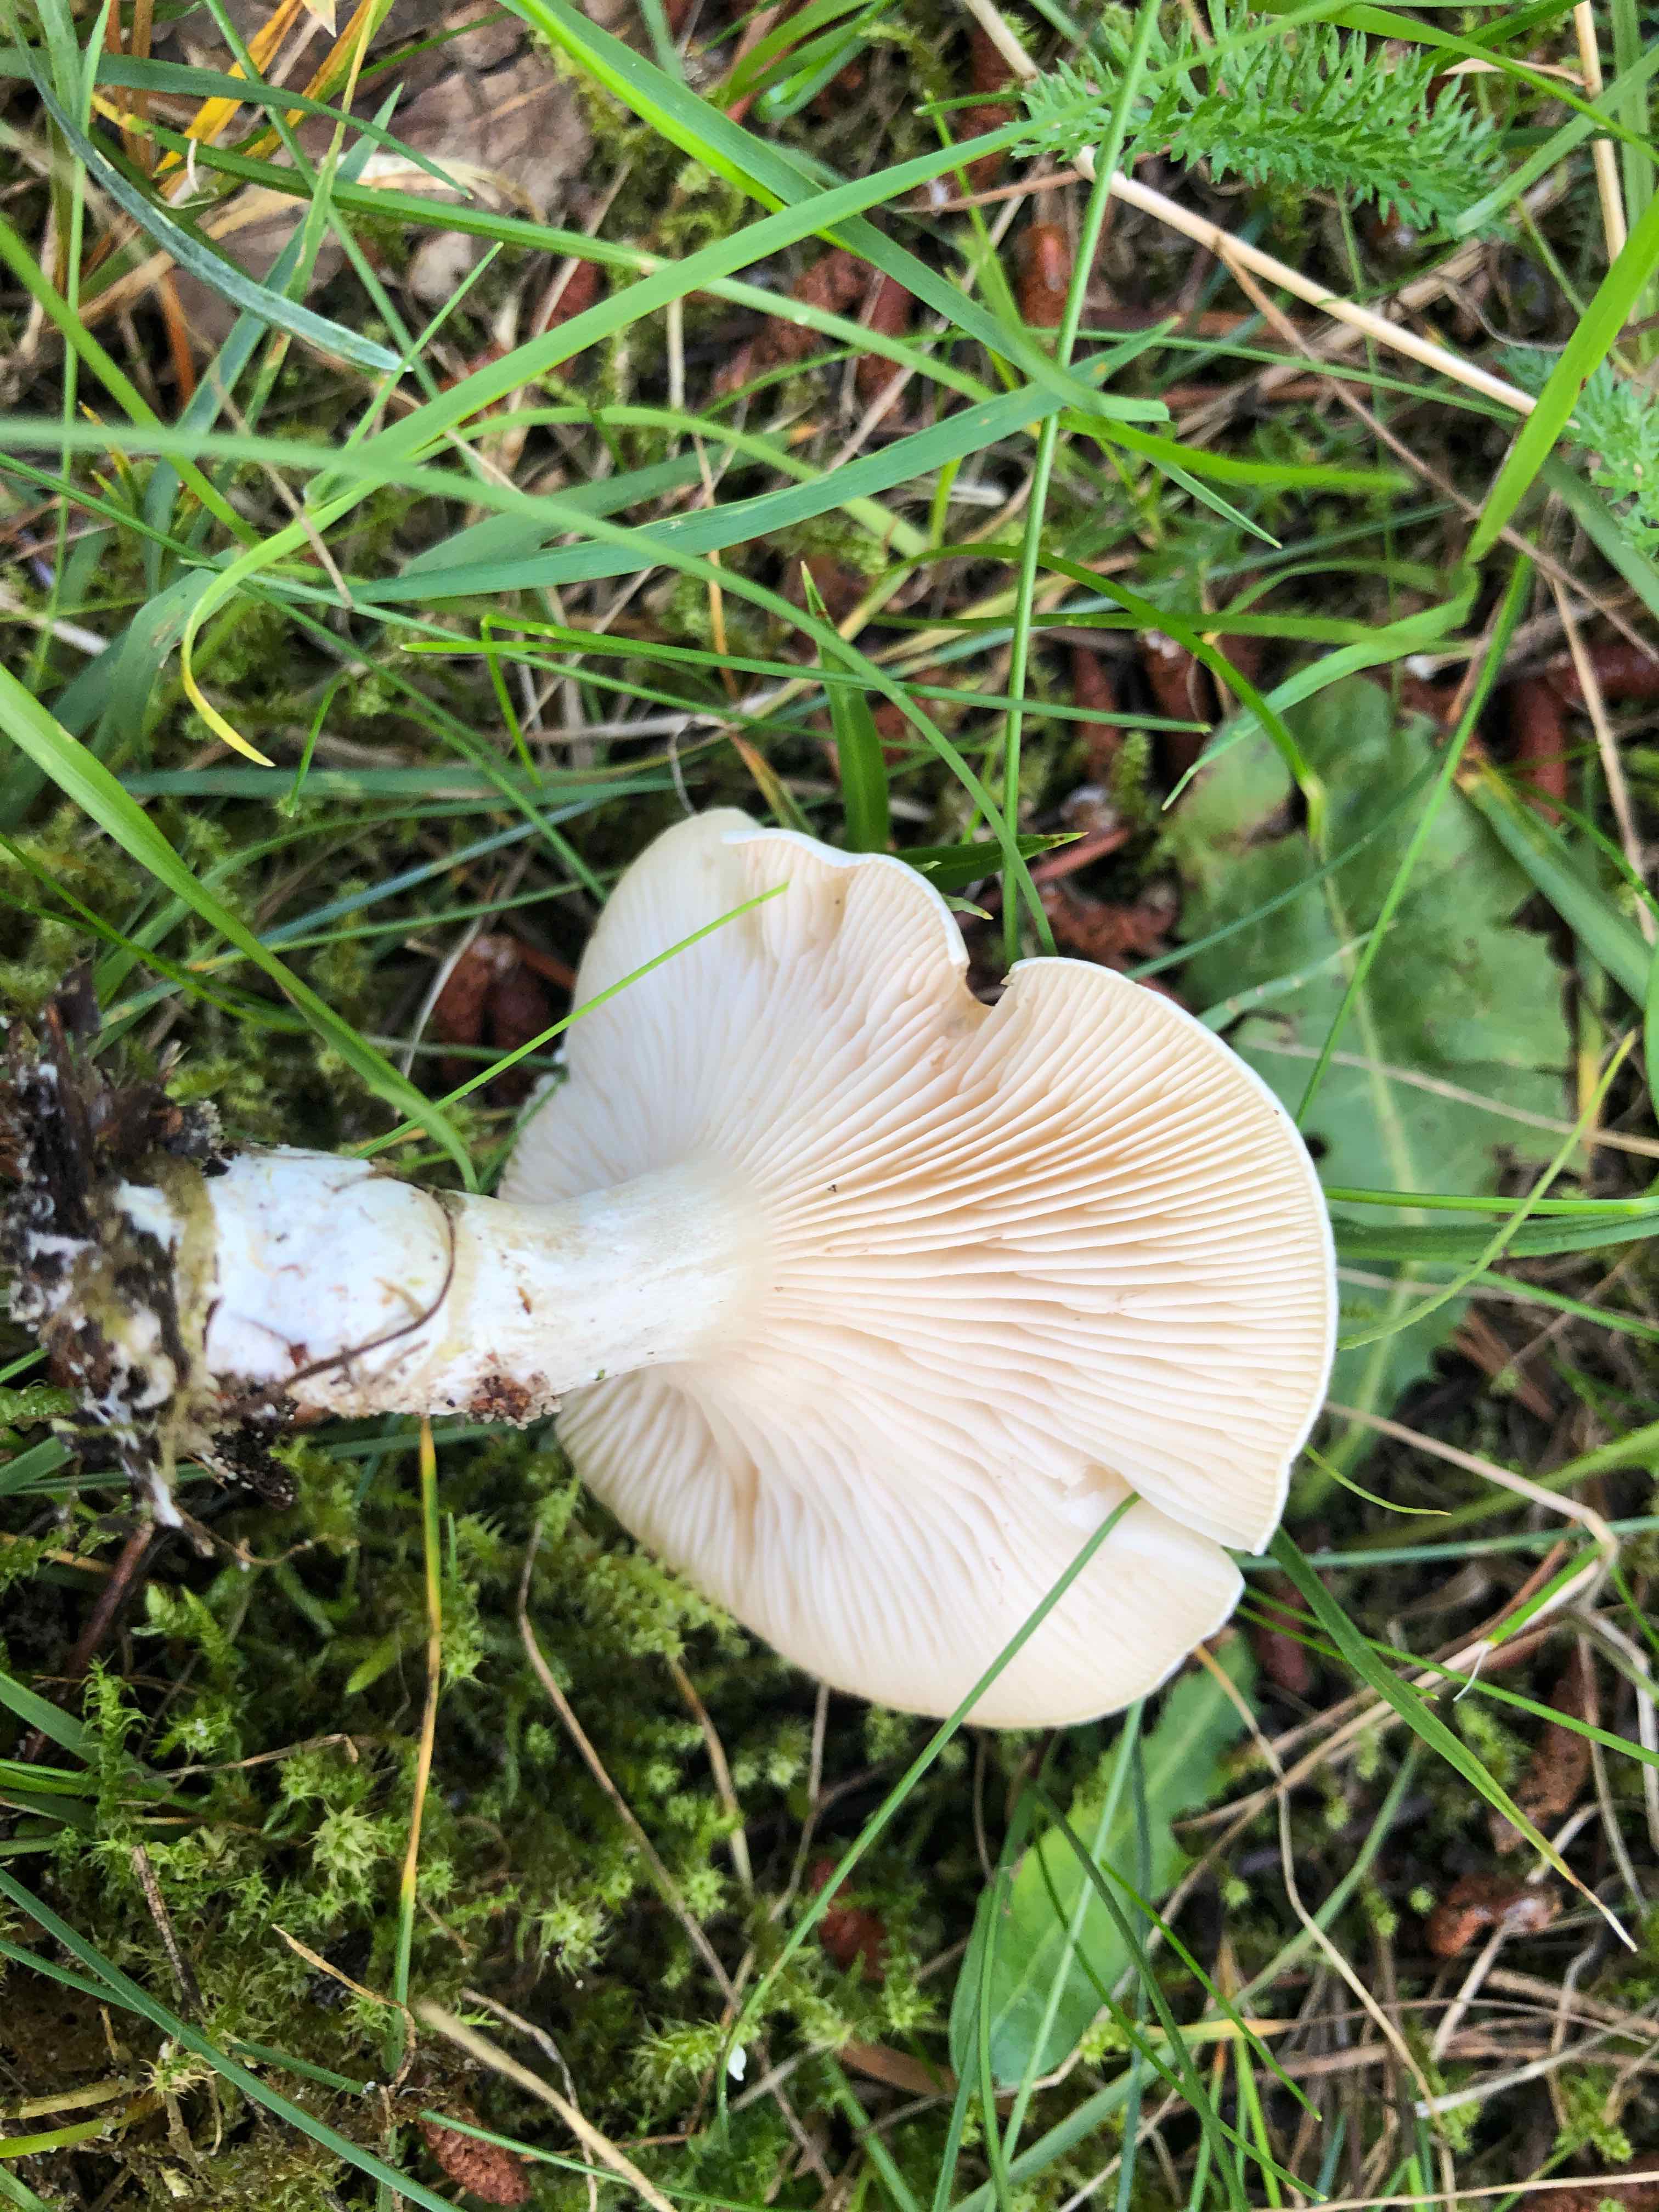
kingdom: Fungi
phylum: Basidiomycota
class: Agaricomycetes
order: Agaricales
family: Entolomataceae
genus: Clitopilus
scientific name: Clitopilus prunulus
